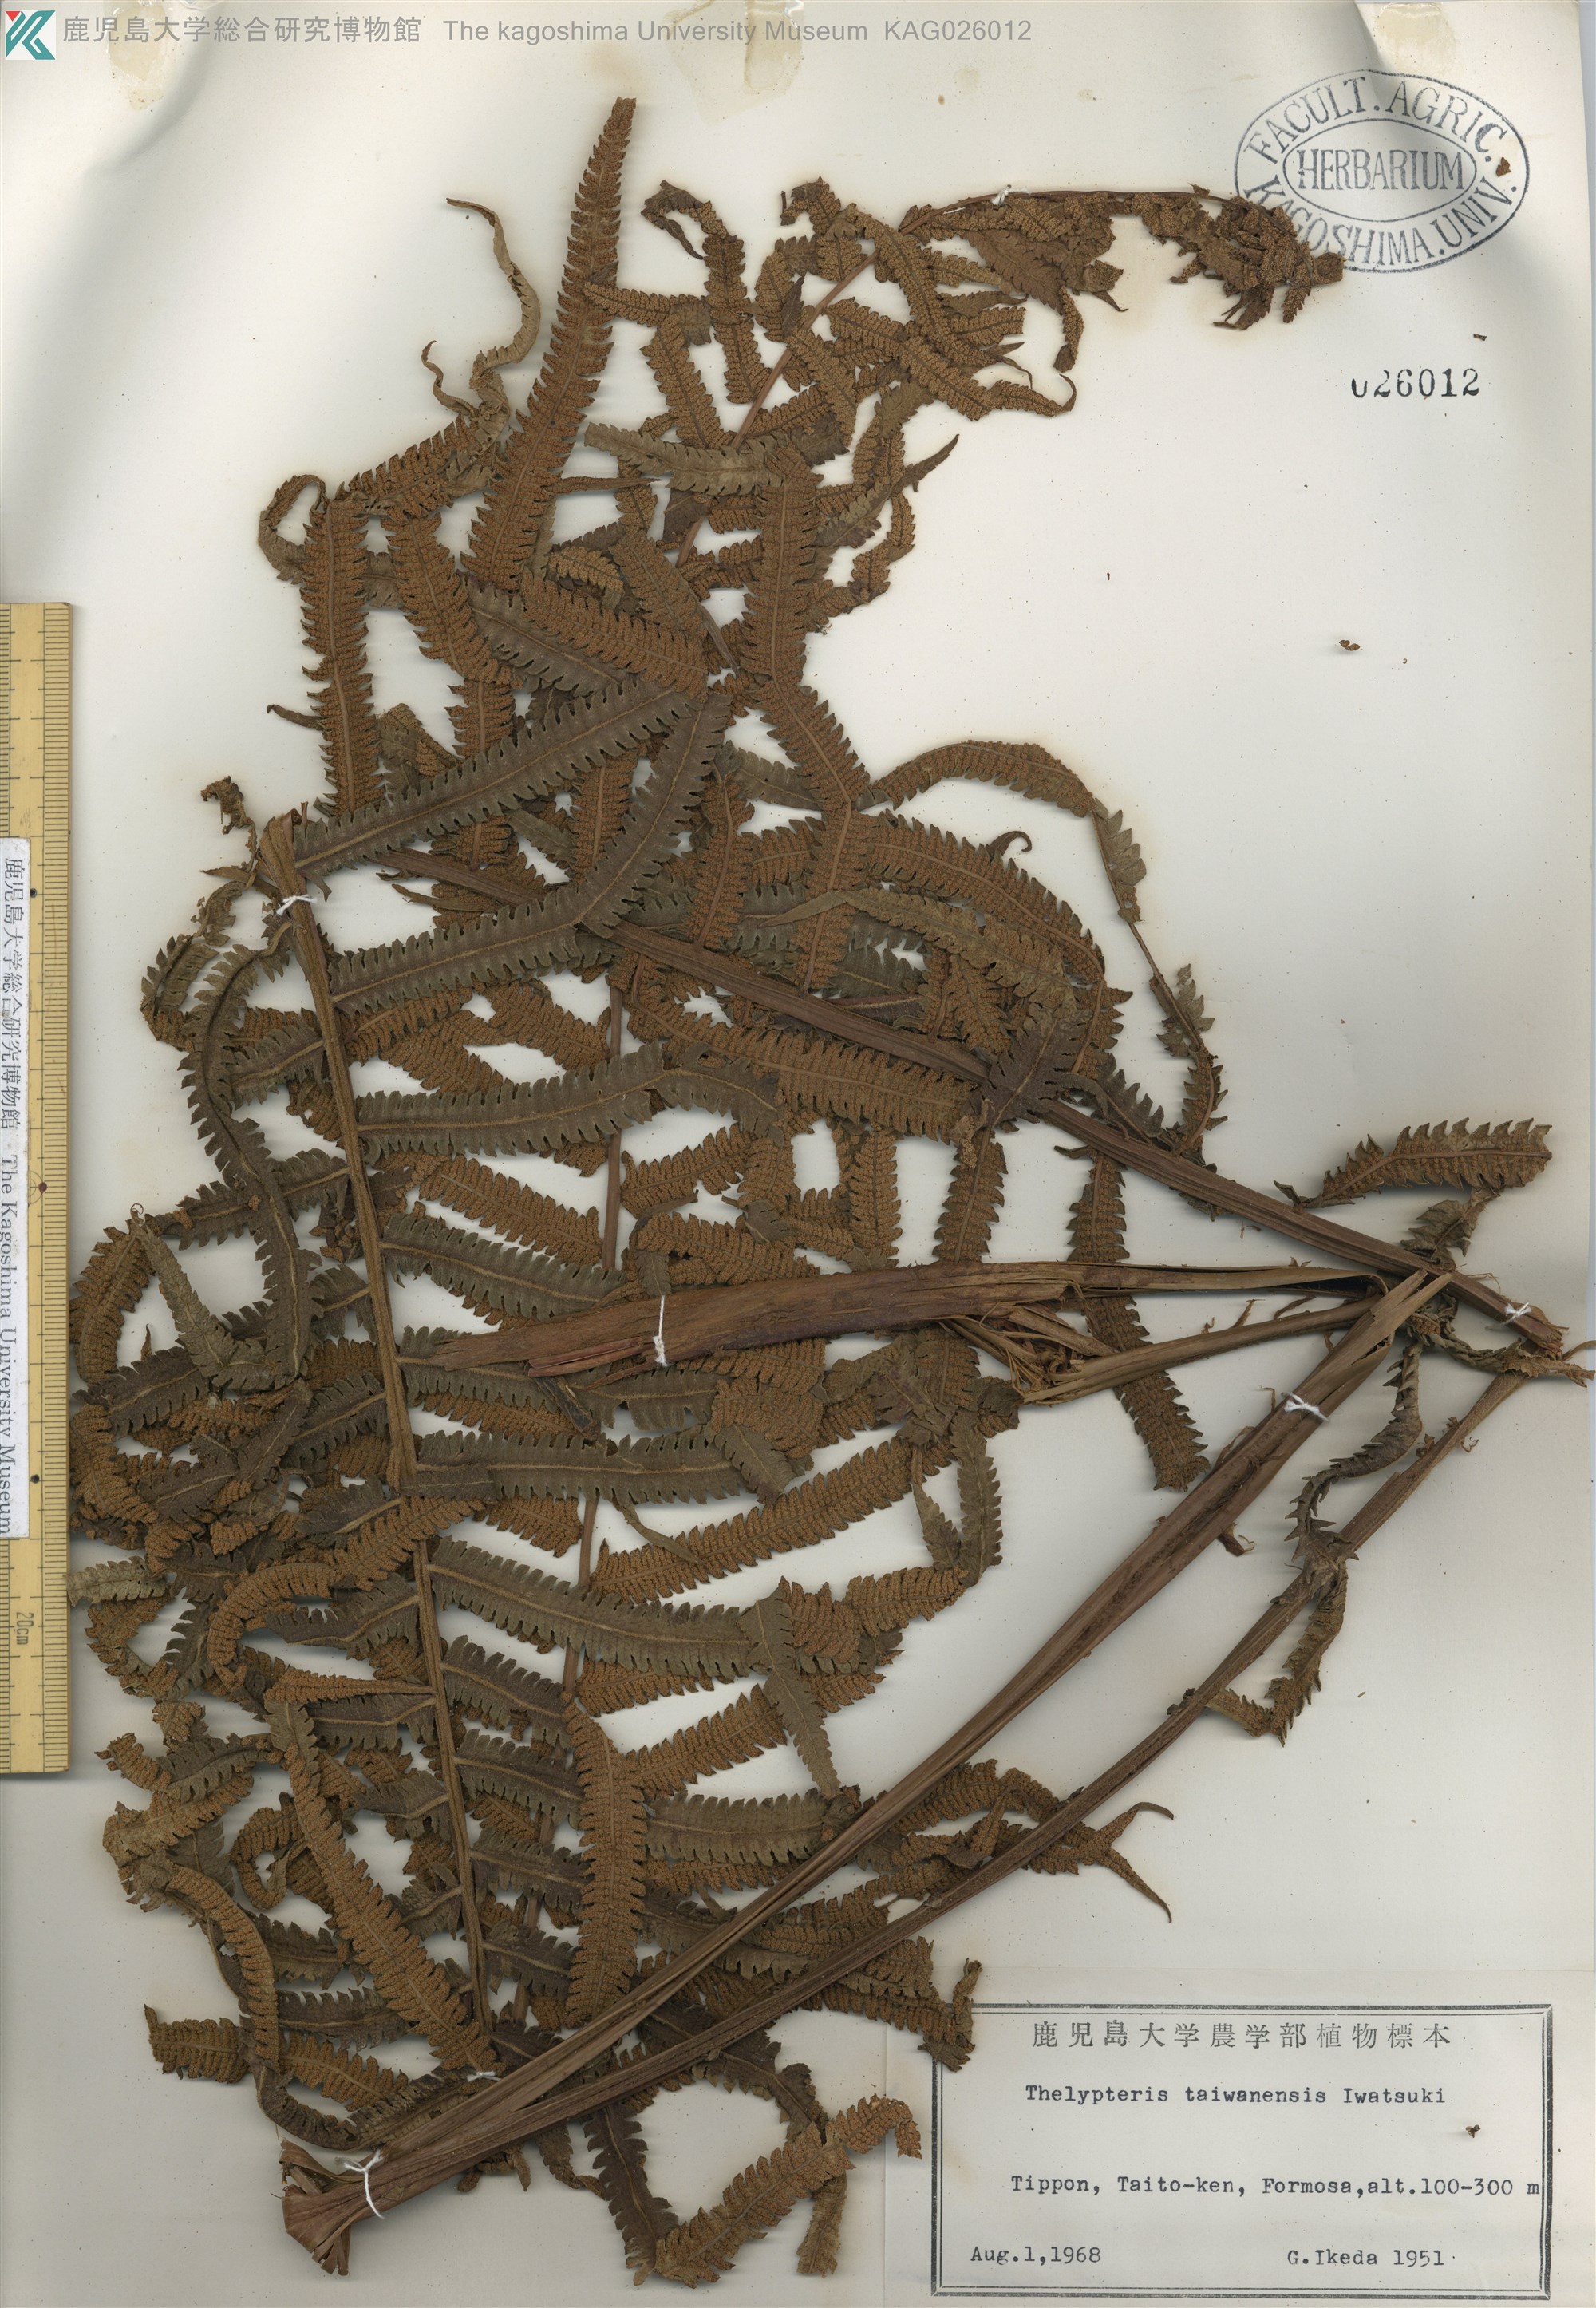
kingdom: Plantae
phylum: Tracheophyta
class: Polypodiopsida
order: Polypodiales
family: Thelypteridaceae
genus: Sphaerostephanos
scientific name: Sphaerostephanos taiwanensis
